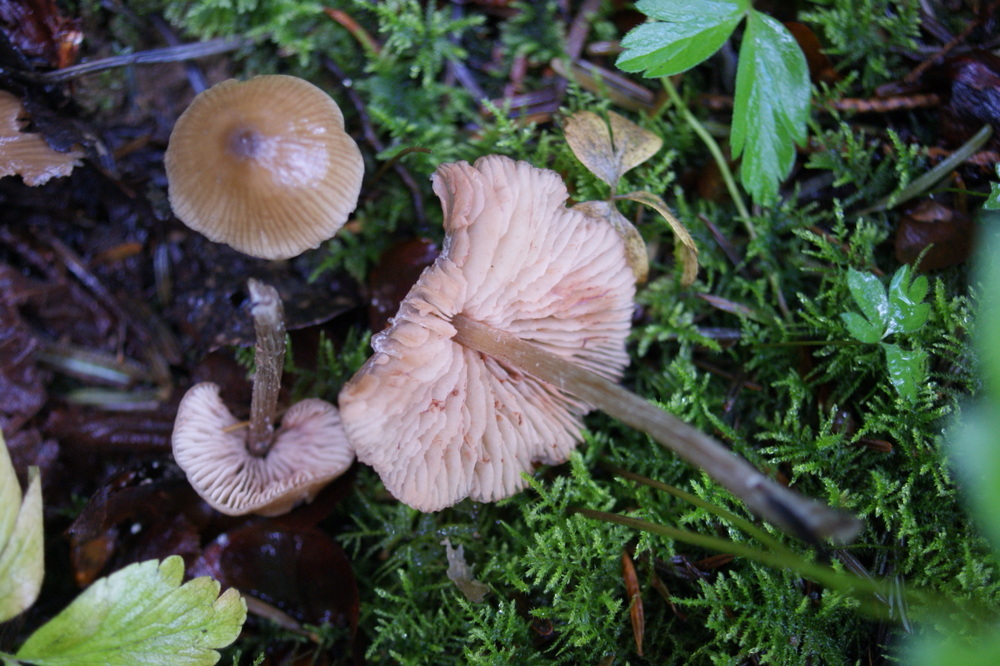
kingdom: Fungi
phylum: Basidiomycota
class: Agaricomycetes
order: Agaricales
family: Entolomataceae
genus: Entoloma
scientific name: Entoloma conferendum
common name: stjernesporet rødblad
